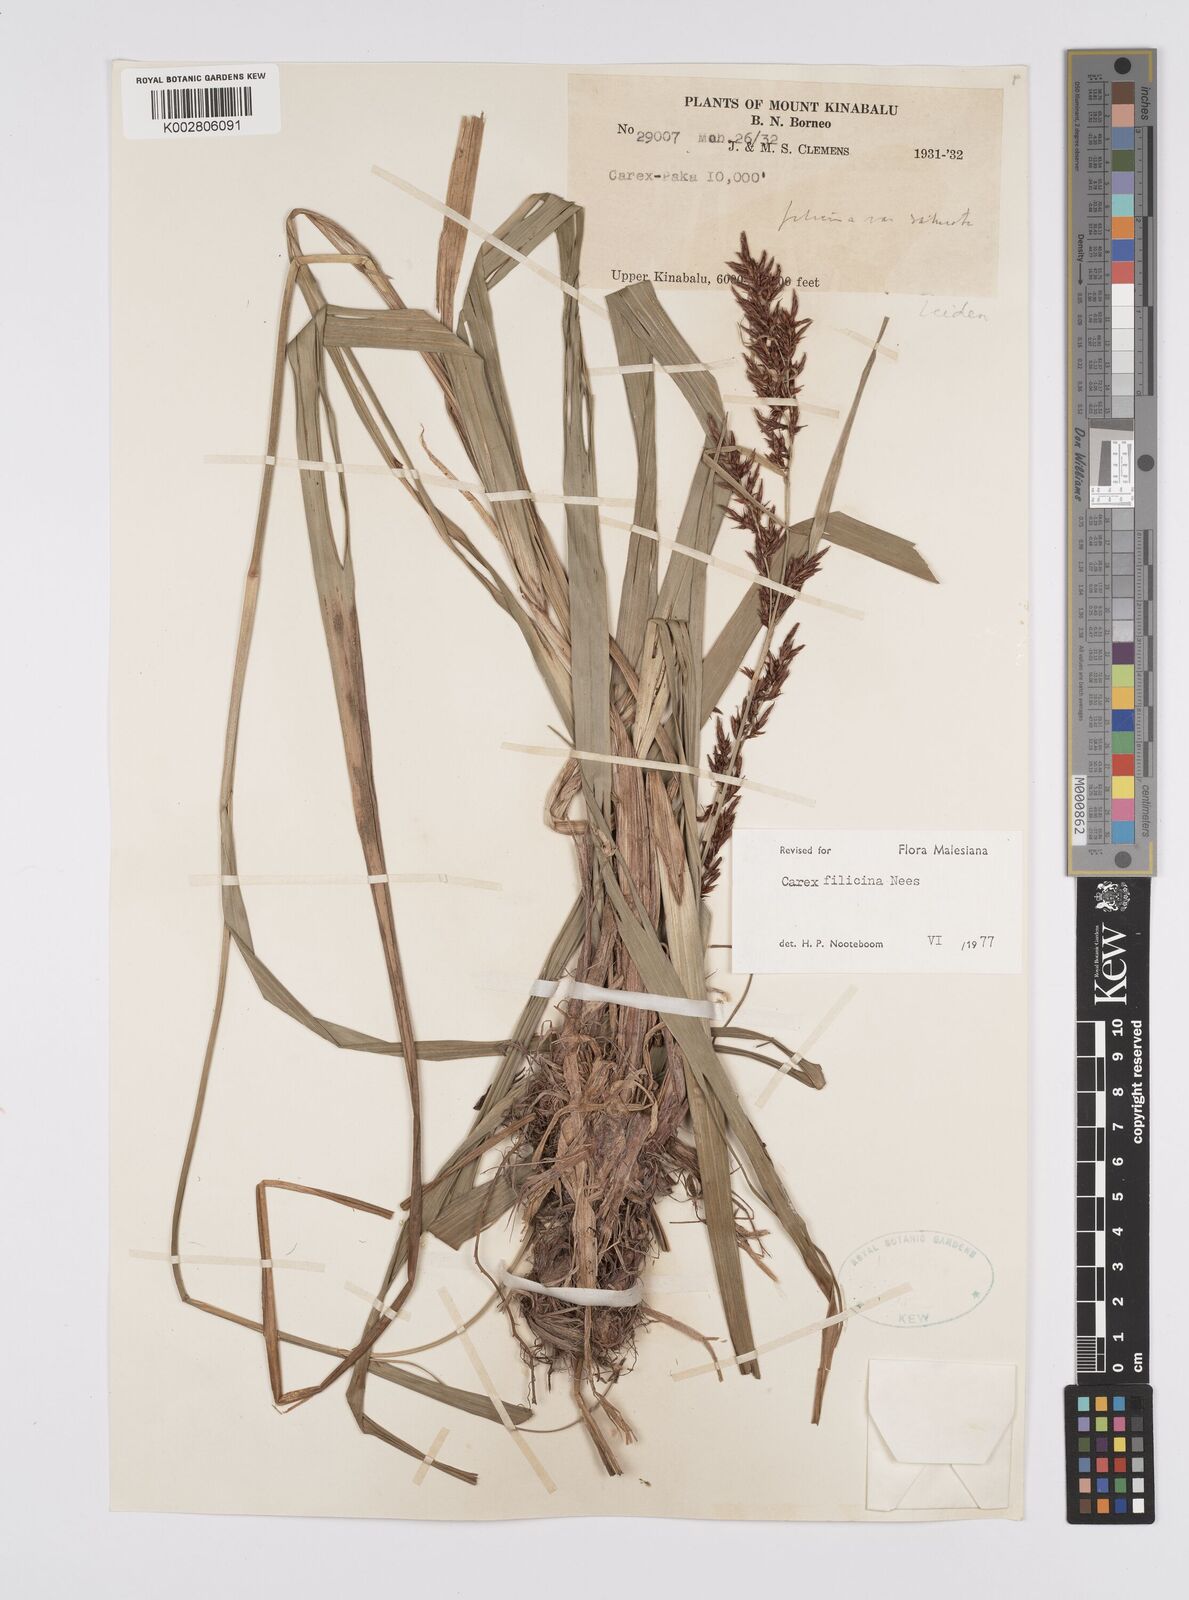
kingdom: Plantae
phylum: Tracheophyta
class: Liliopsida
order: Poales
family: Cyperaceae
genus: Carex
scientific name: Carex filicina
